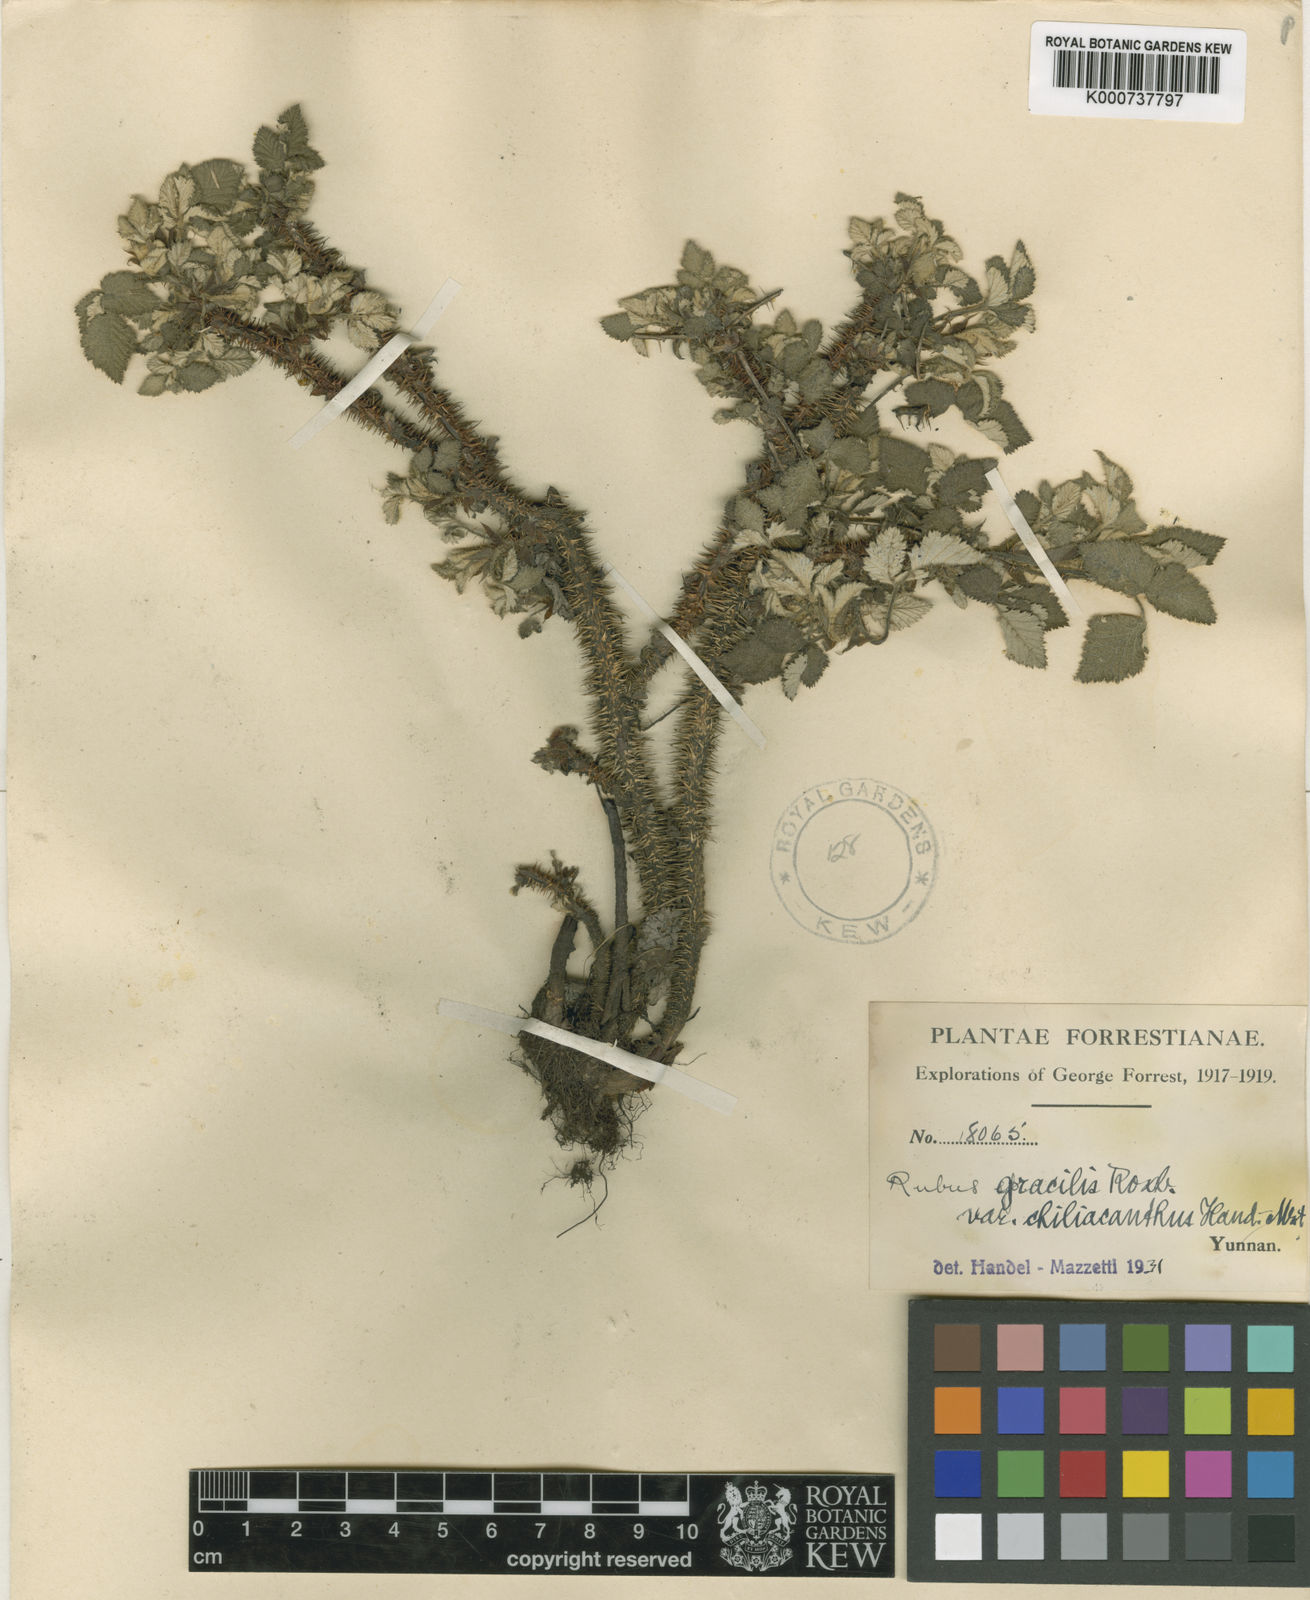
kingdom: Plantae
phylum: Tracheophyta
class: Magnoliopsida
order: Rosales
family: Rosaceae
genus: Rubus
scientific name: Rubus pedunculosus
